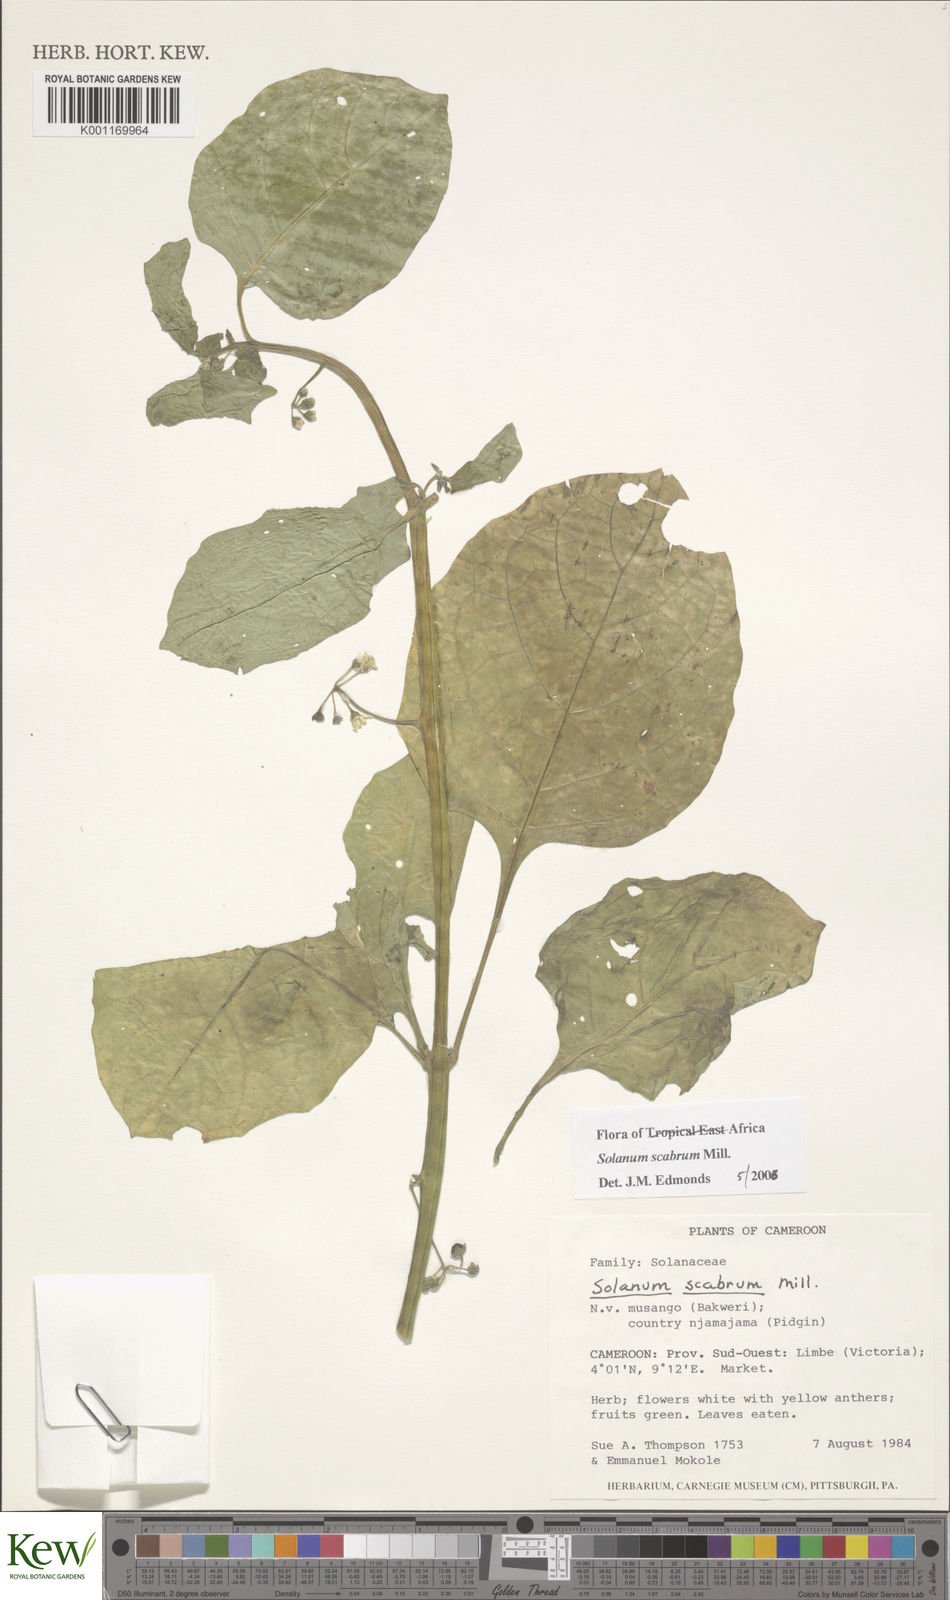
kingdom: Plantae
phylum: Tracheophyta
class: Magnoliopsida
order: Solanales
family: Solanaceae
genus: Solanum
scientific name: Solanum scabrum
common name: Garden-huckleberry
